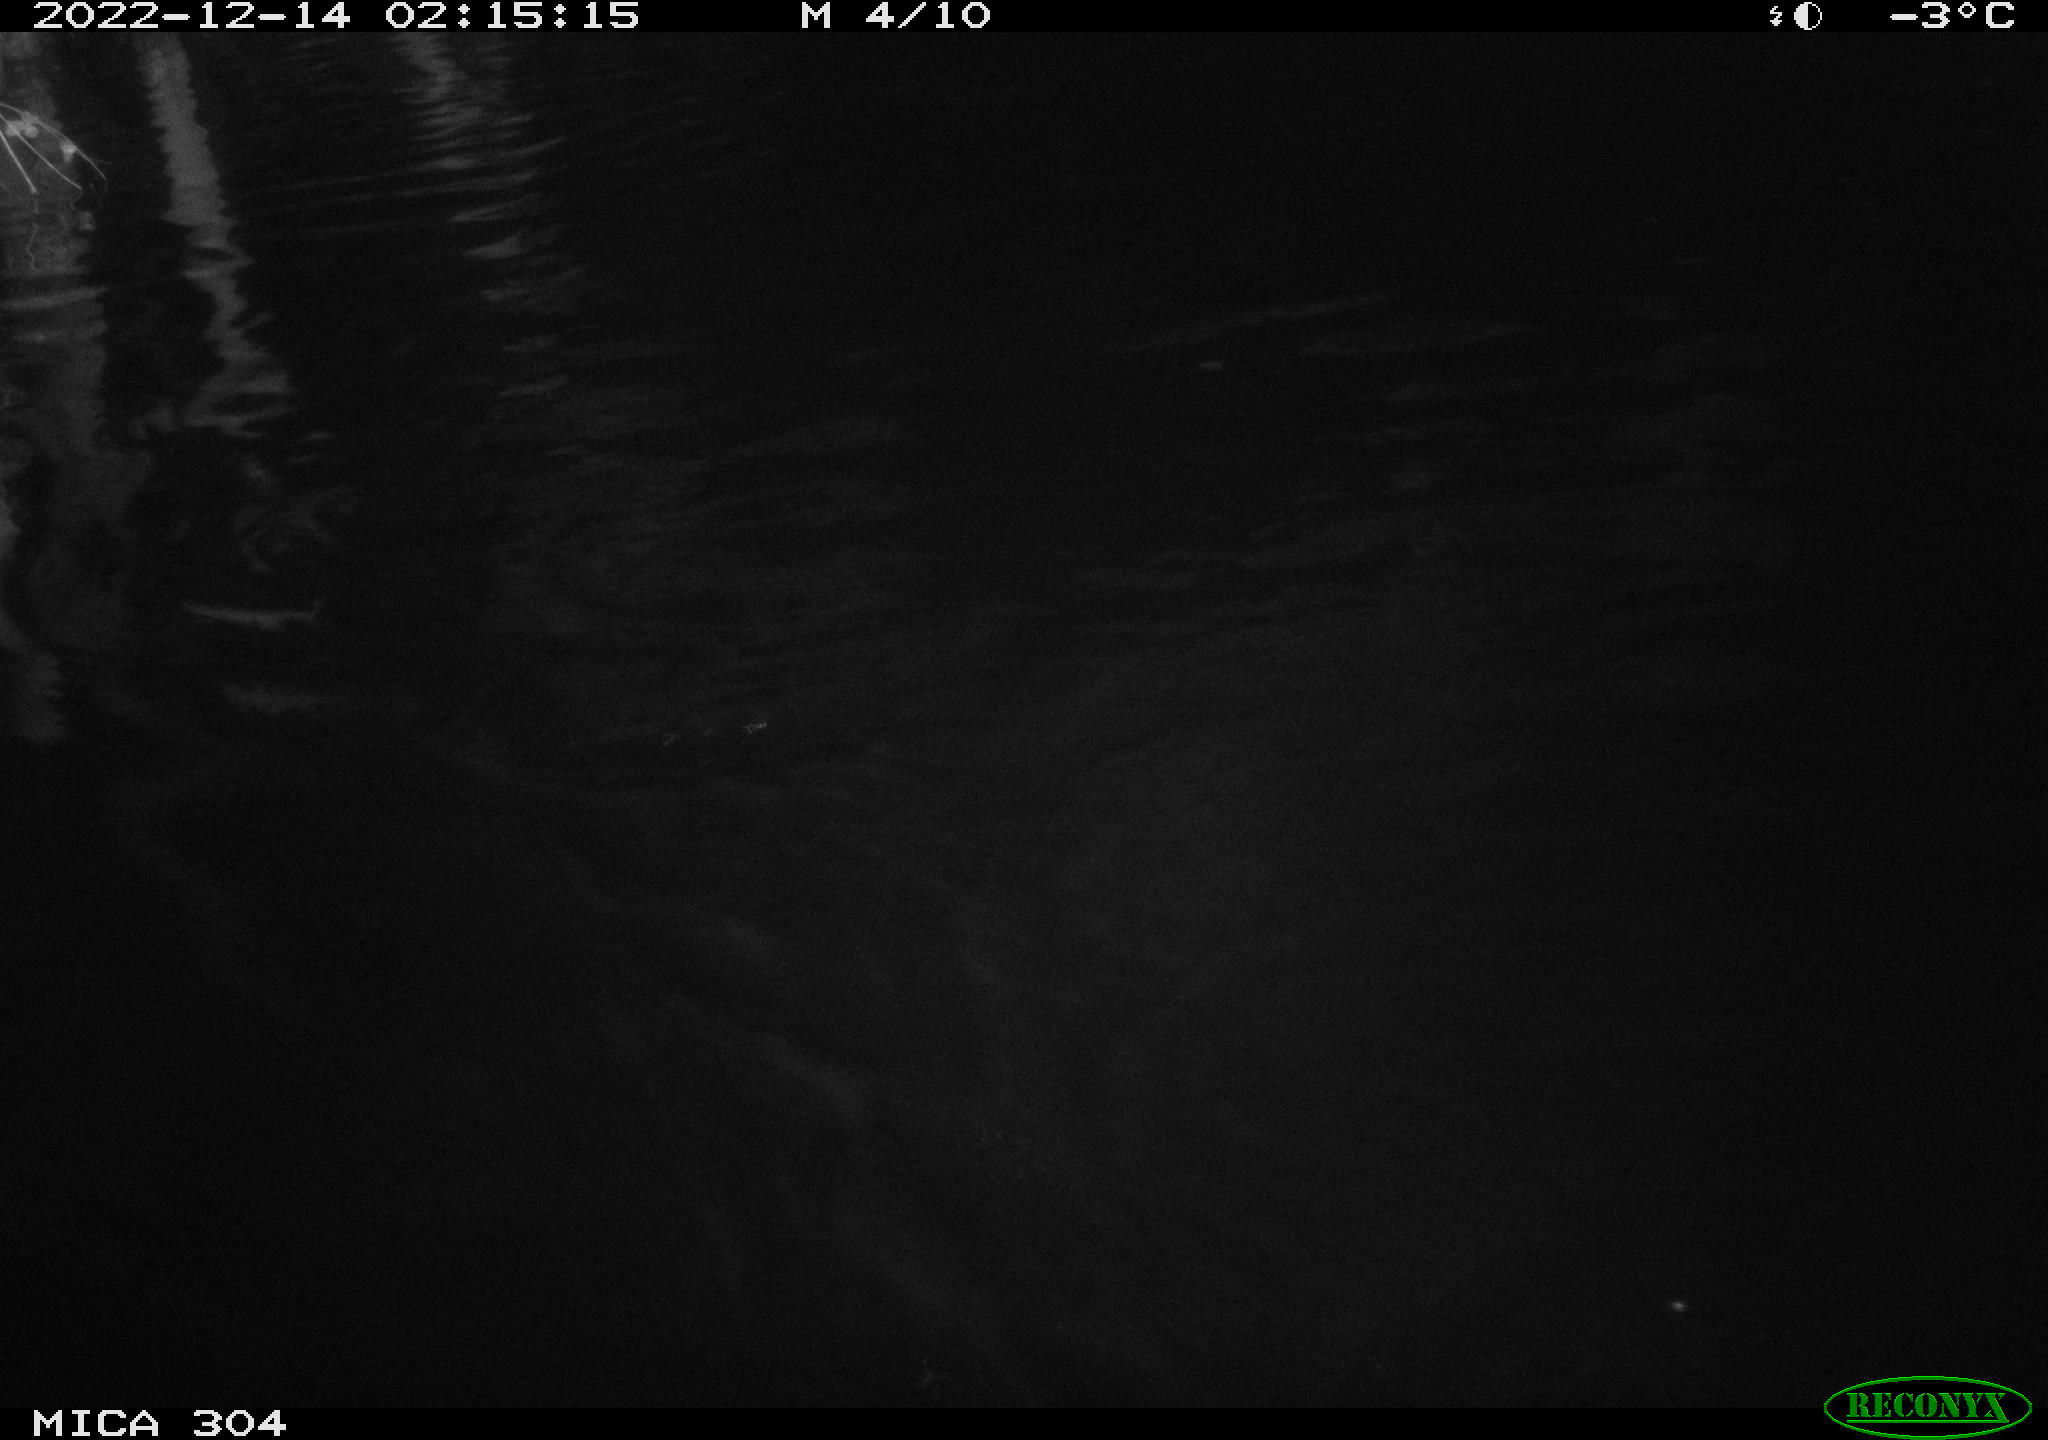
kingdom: Animalia
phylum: Chordata
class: Mammalia
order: Rodentia
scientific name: Rodentia
